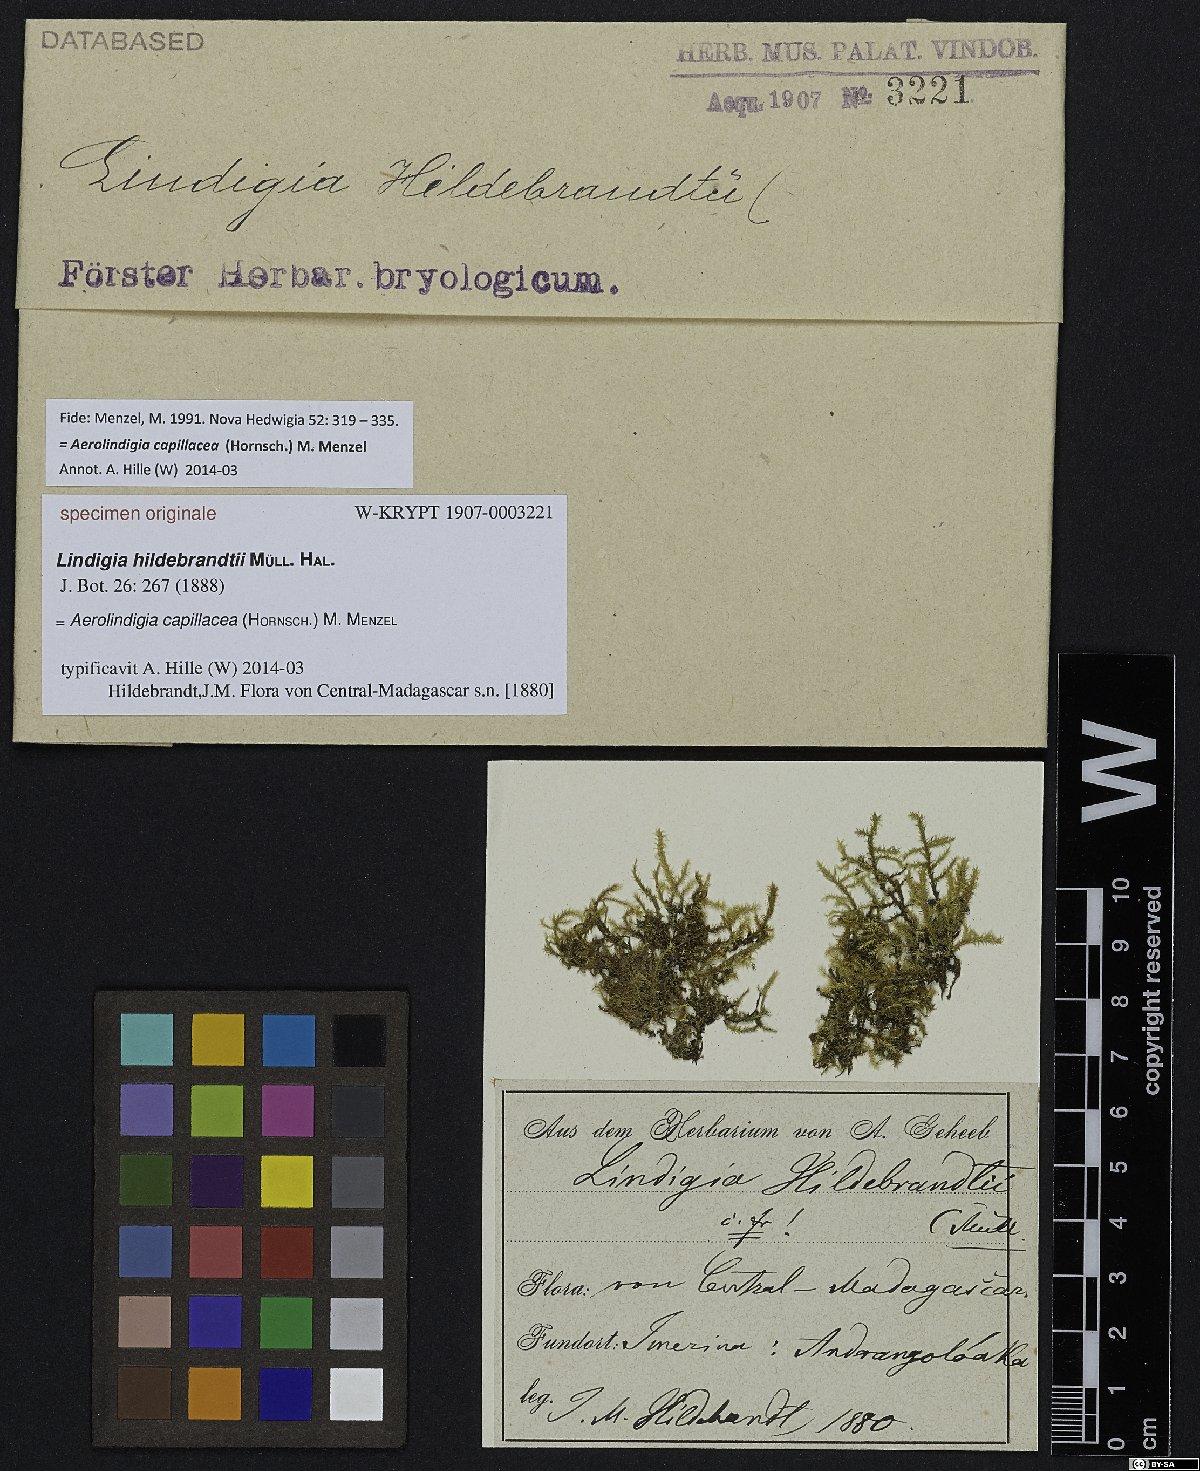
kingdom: Plantae
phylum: Bryophyta
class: Bryopsida
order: Hypnales
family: Brachytheciaceae
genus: Aerolindigia
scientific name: Aerolindigia capillacea
